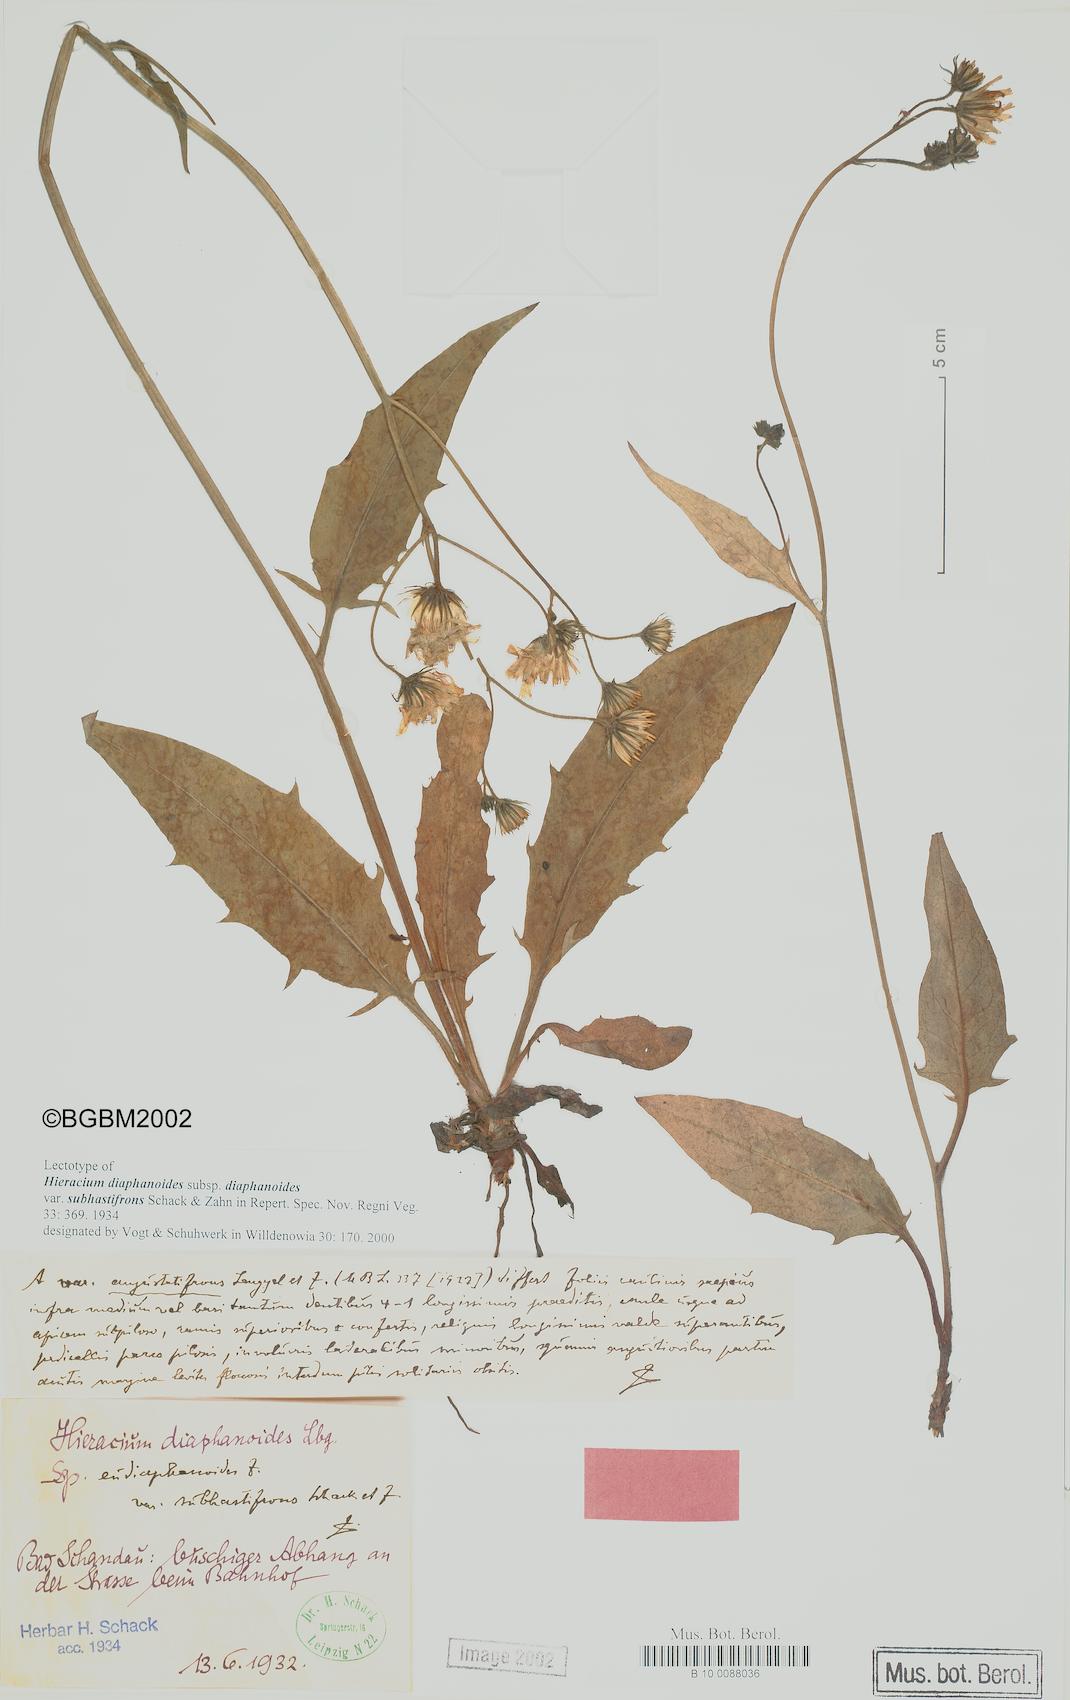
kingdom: Plantae
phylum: Tracheophyta
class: Magnoliopsida
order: Asterales
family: Asteraceae
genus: Hieracium
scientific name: Hieracium diaphanoides
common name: Fine-bracted hawkweed
